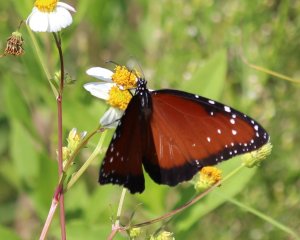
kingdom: Animalia
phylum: Arthropoda
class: Insecta
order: Lepidoptera
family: Nymphalidae
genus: Danaus
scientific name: Danaus gilippus
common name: Queen
